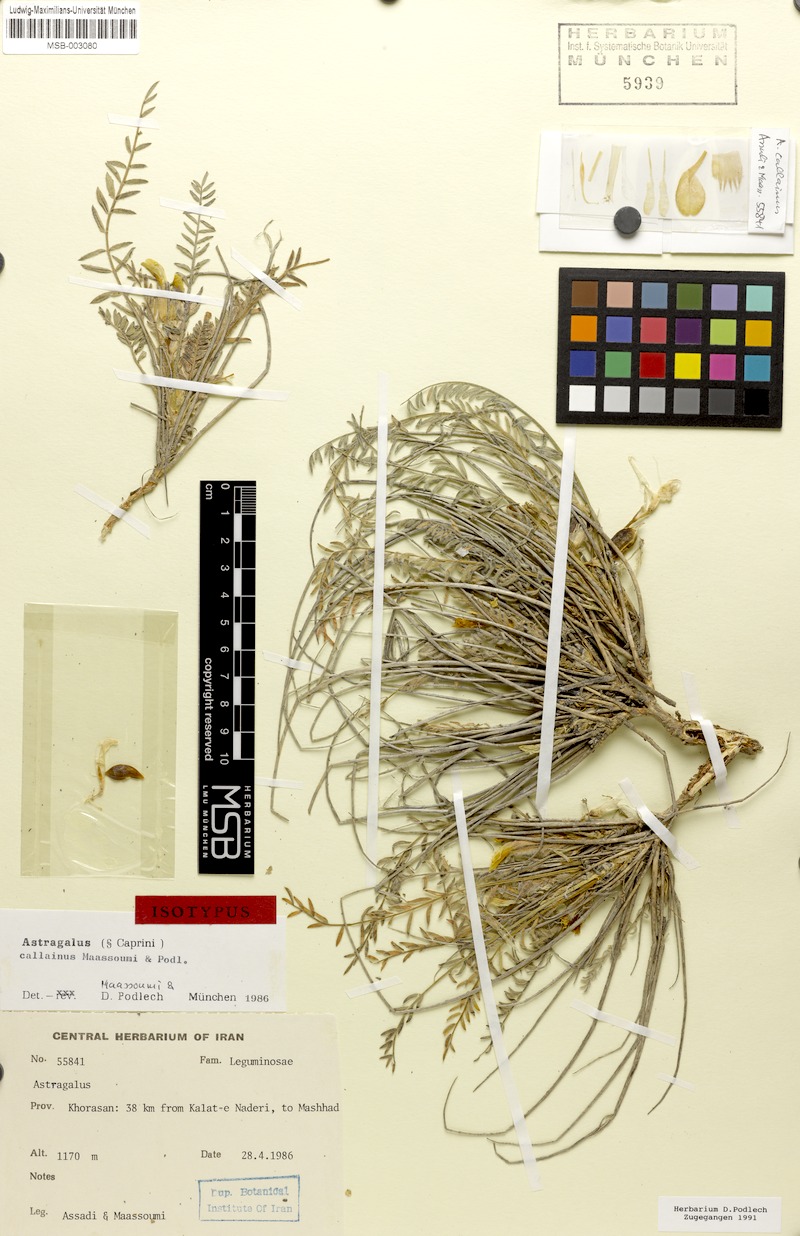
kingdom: Plantae
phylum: Tracheophyta
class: Magnoliopsida
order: Fabales
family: Fabaceae
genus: Astragalus
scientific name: Astragalus callainus
